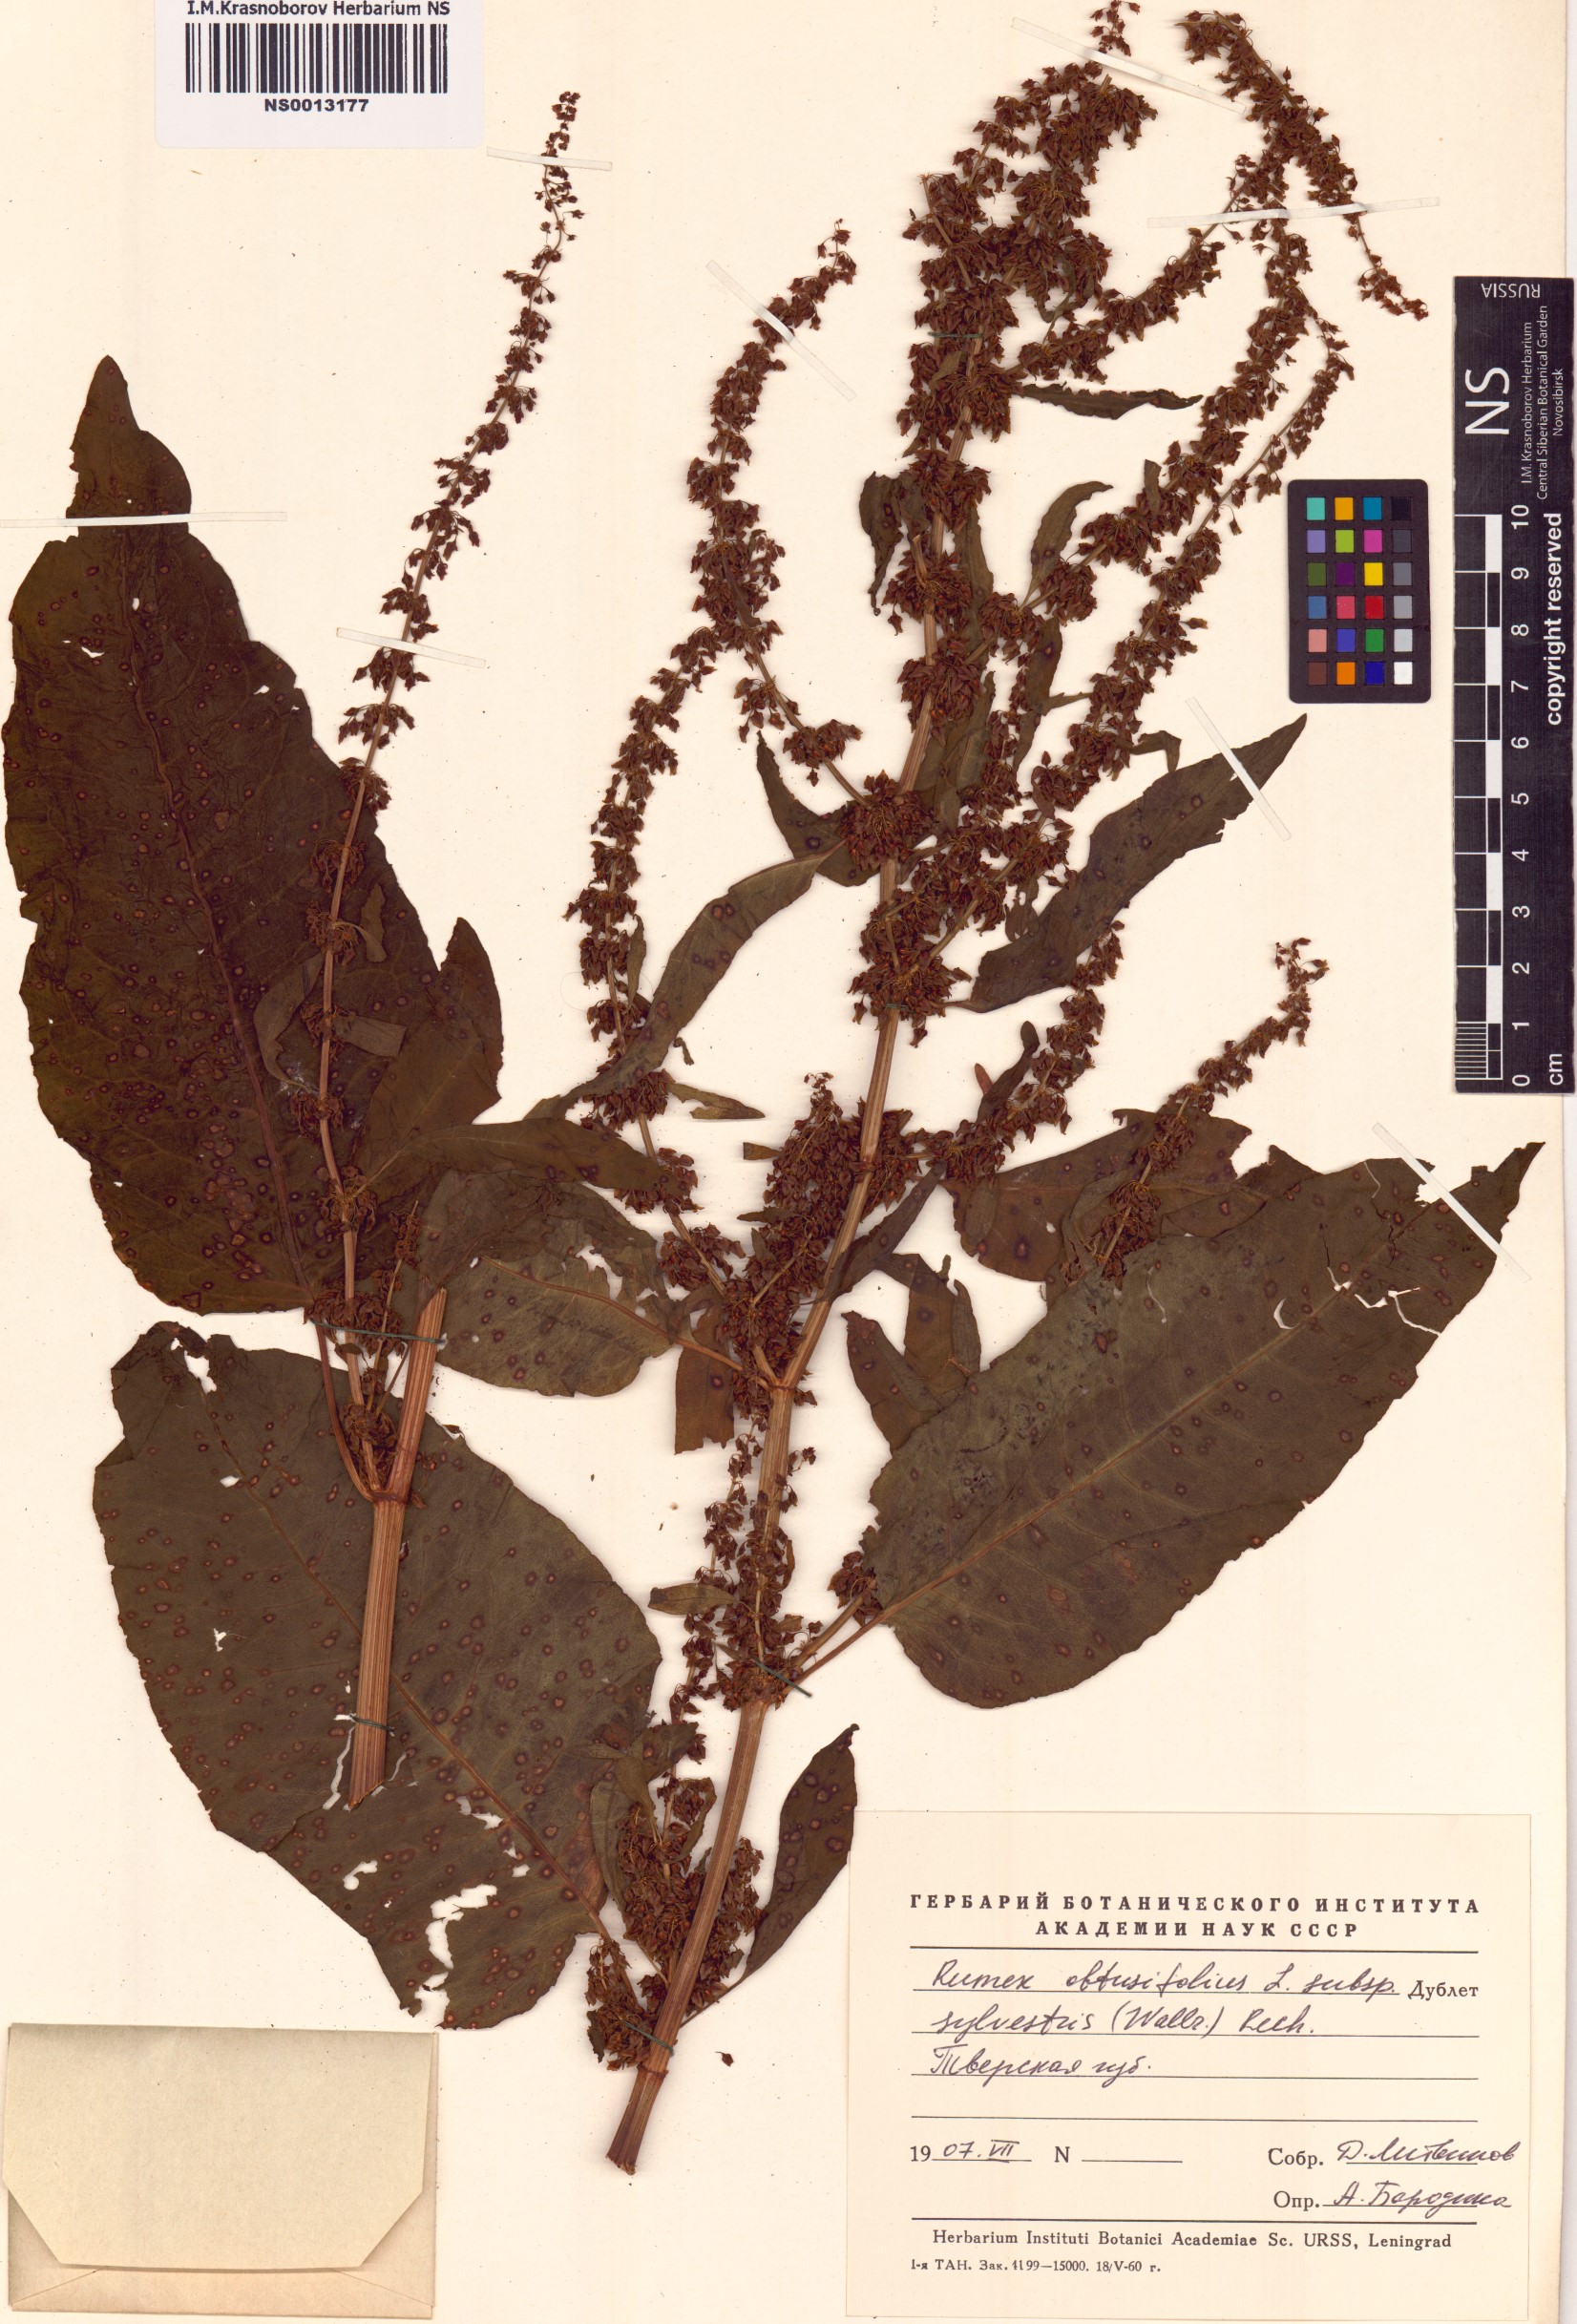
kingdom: Plantae
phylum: Tracheophyta
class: Magnoliopsida
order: Caryophyllales
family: Polygonaceae
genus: Rumex
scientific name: Rumex obtusifolius
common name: Bitter dock
